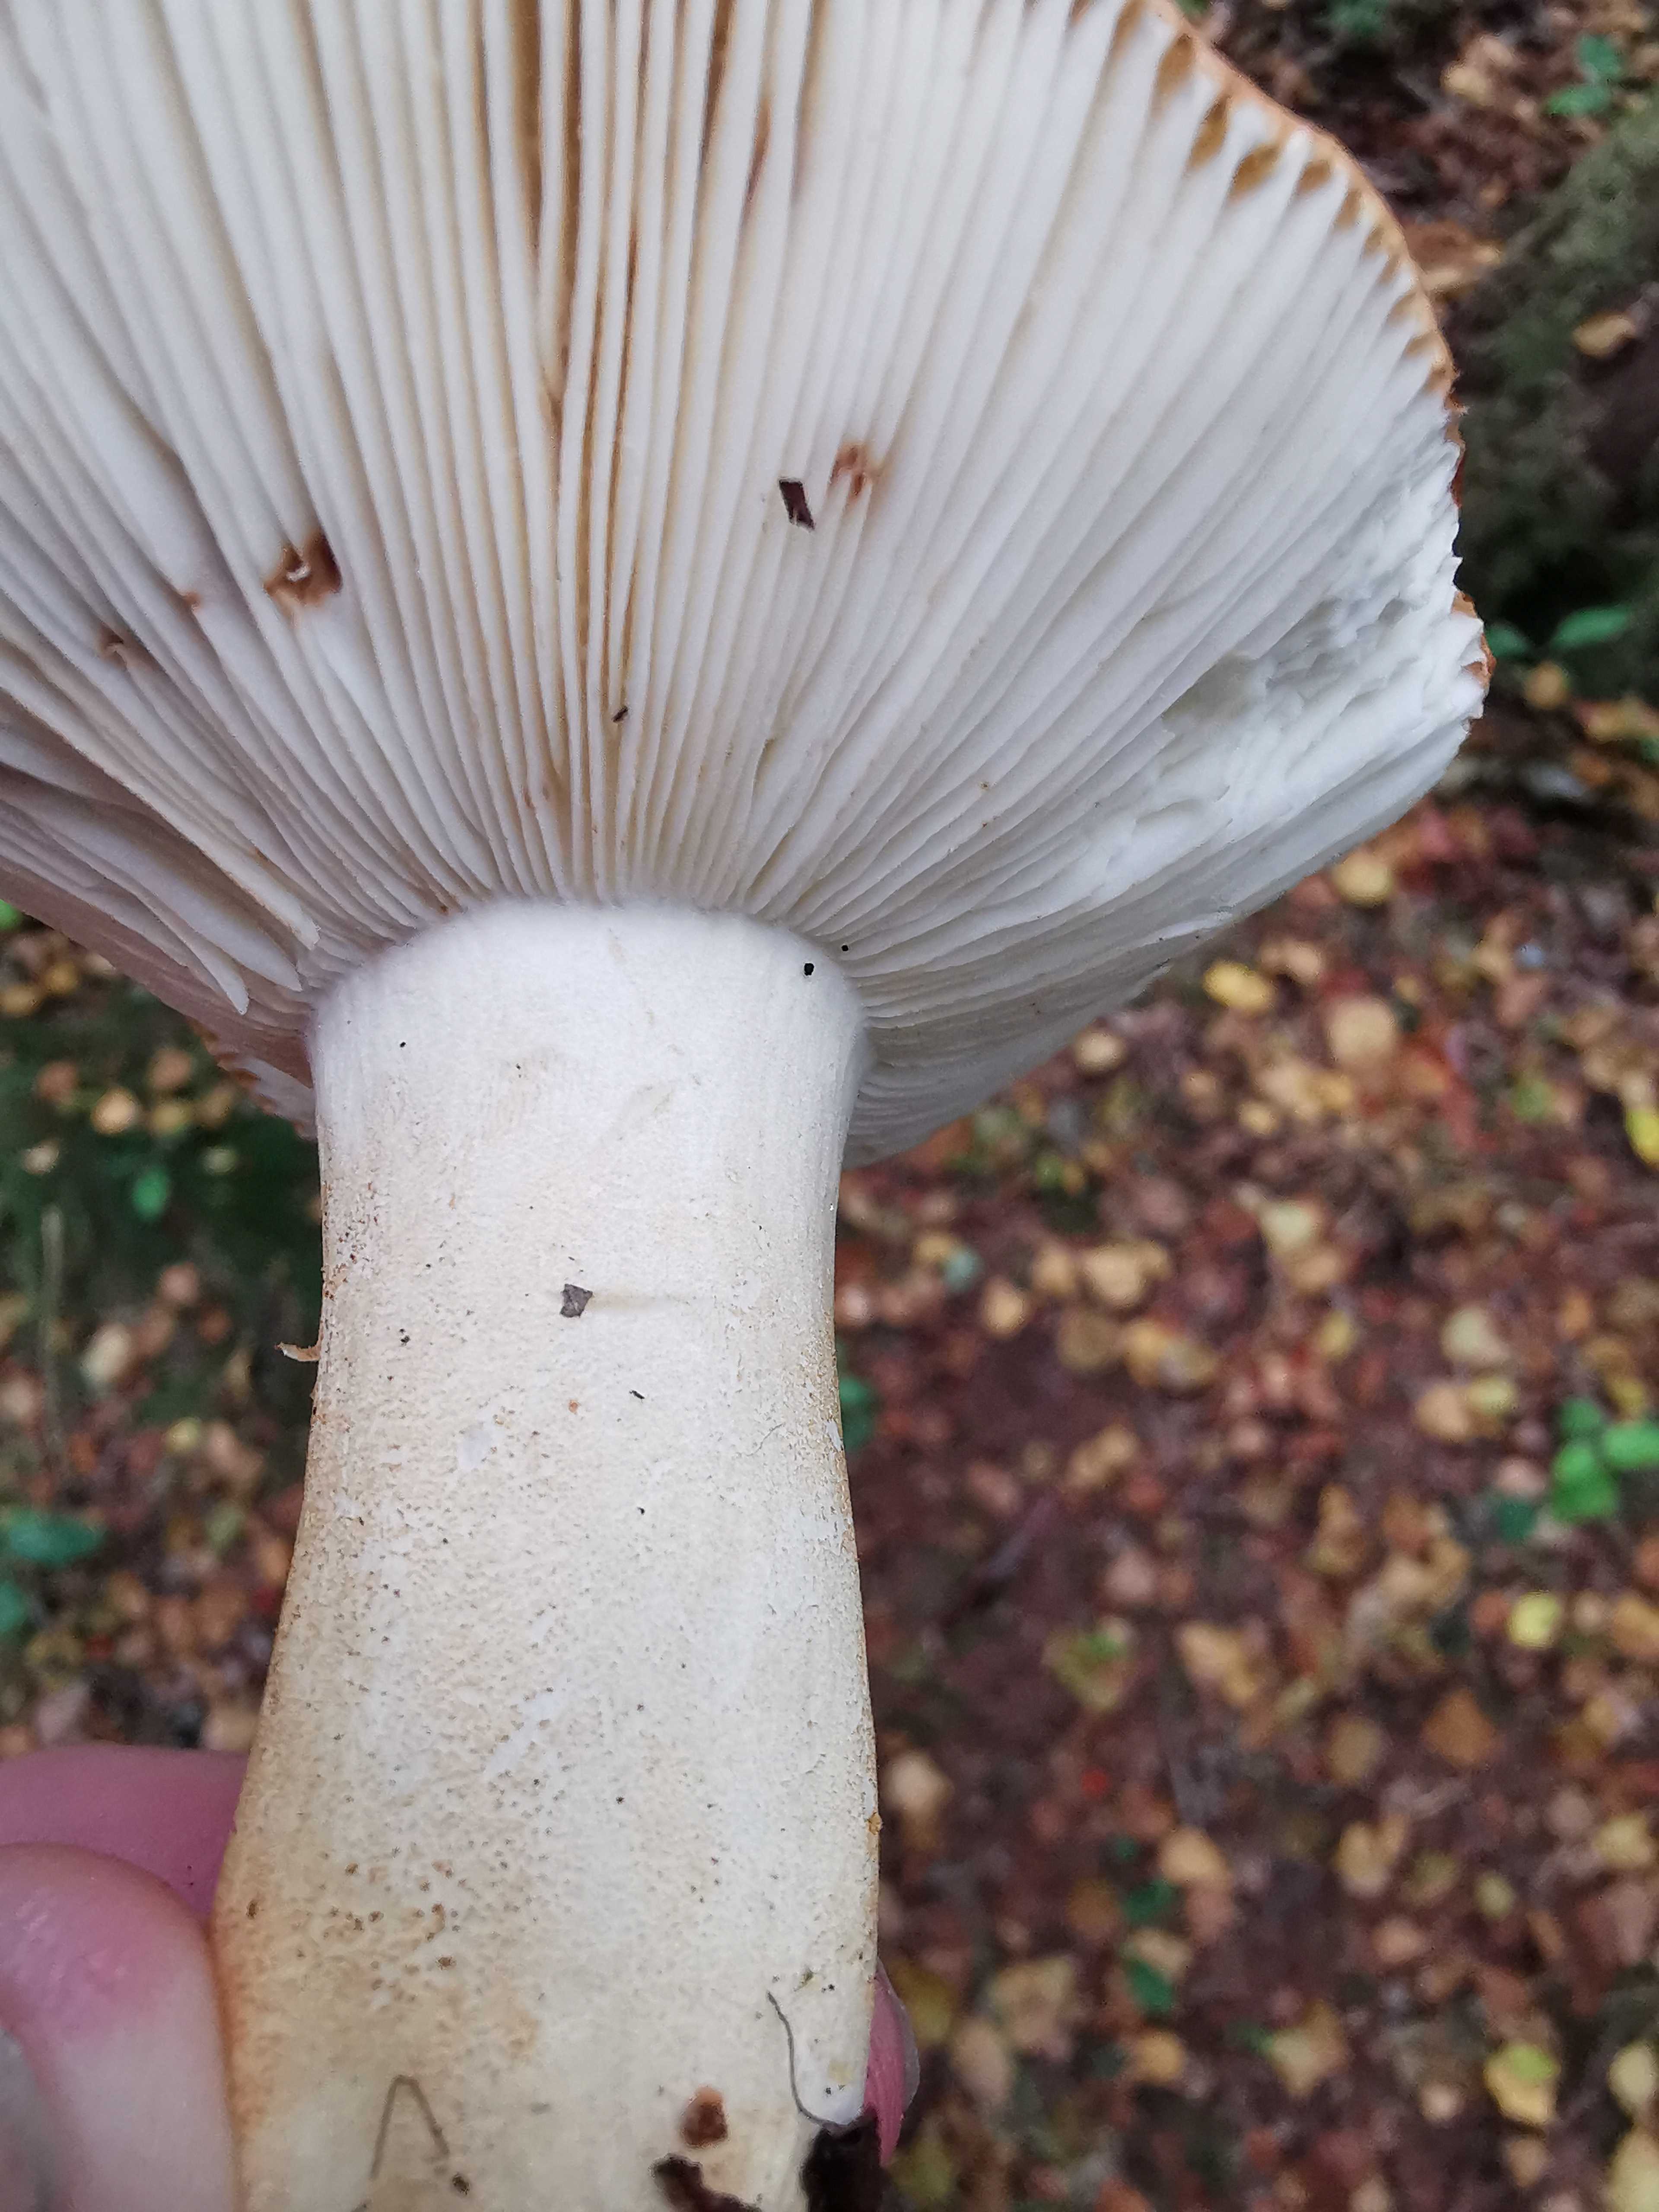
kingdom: Fungi
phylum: Basidiomycota
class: Agaricomycetes
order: Russulales
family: Russulaceae
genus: Russula
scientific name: Russula ochroleuca
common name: okkergul skørhat
